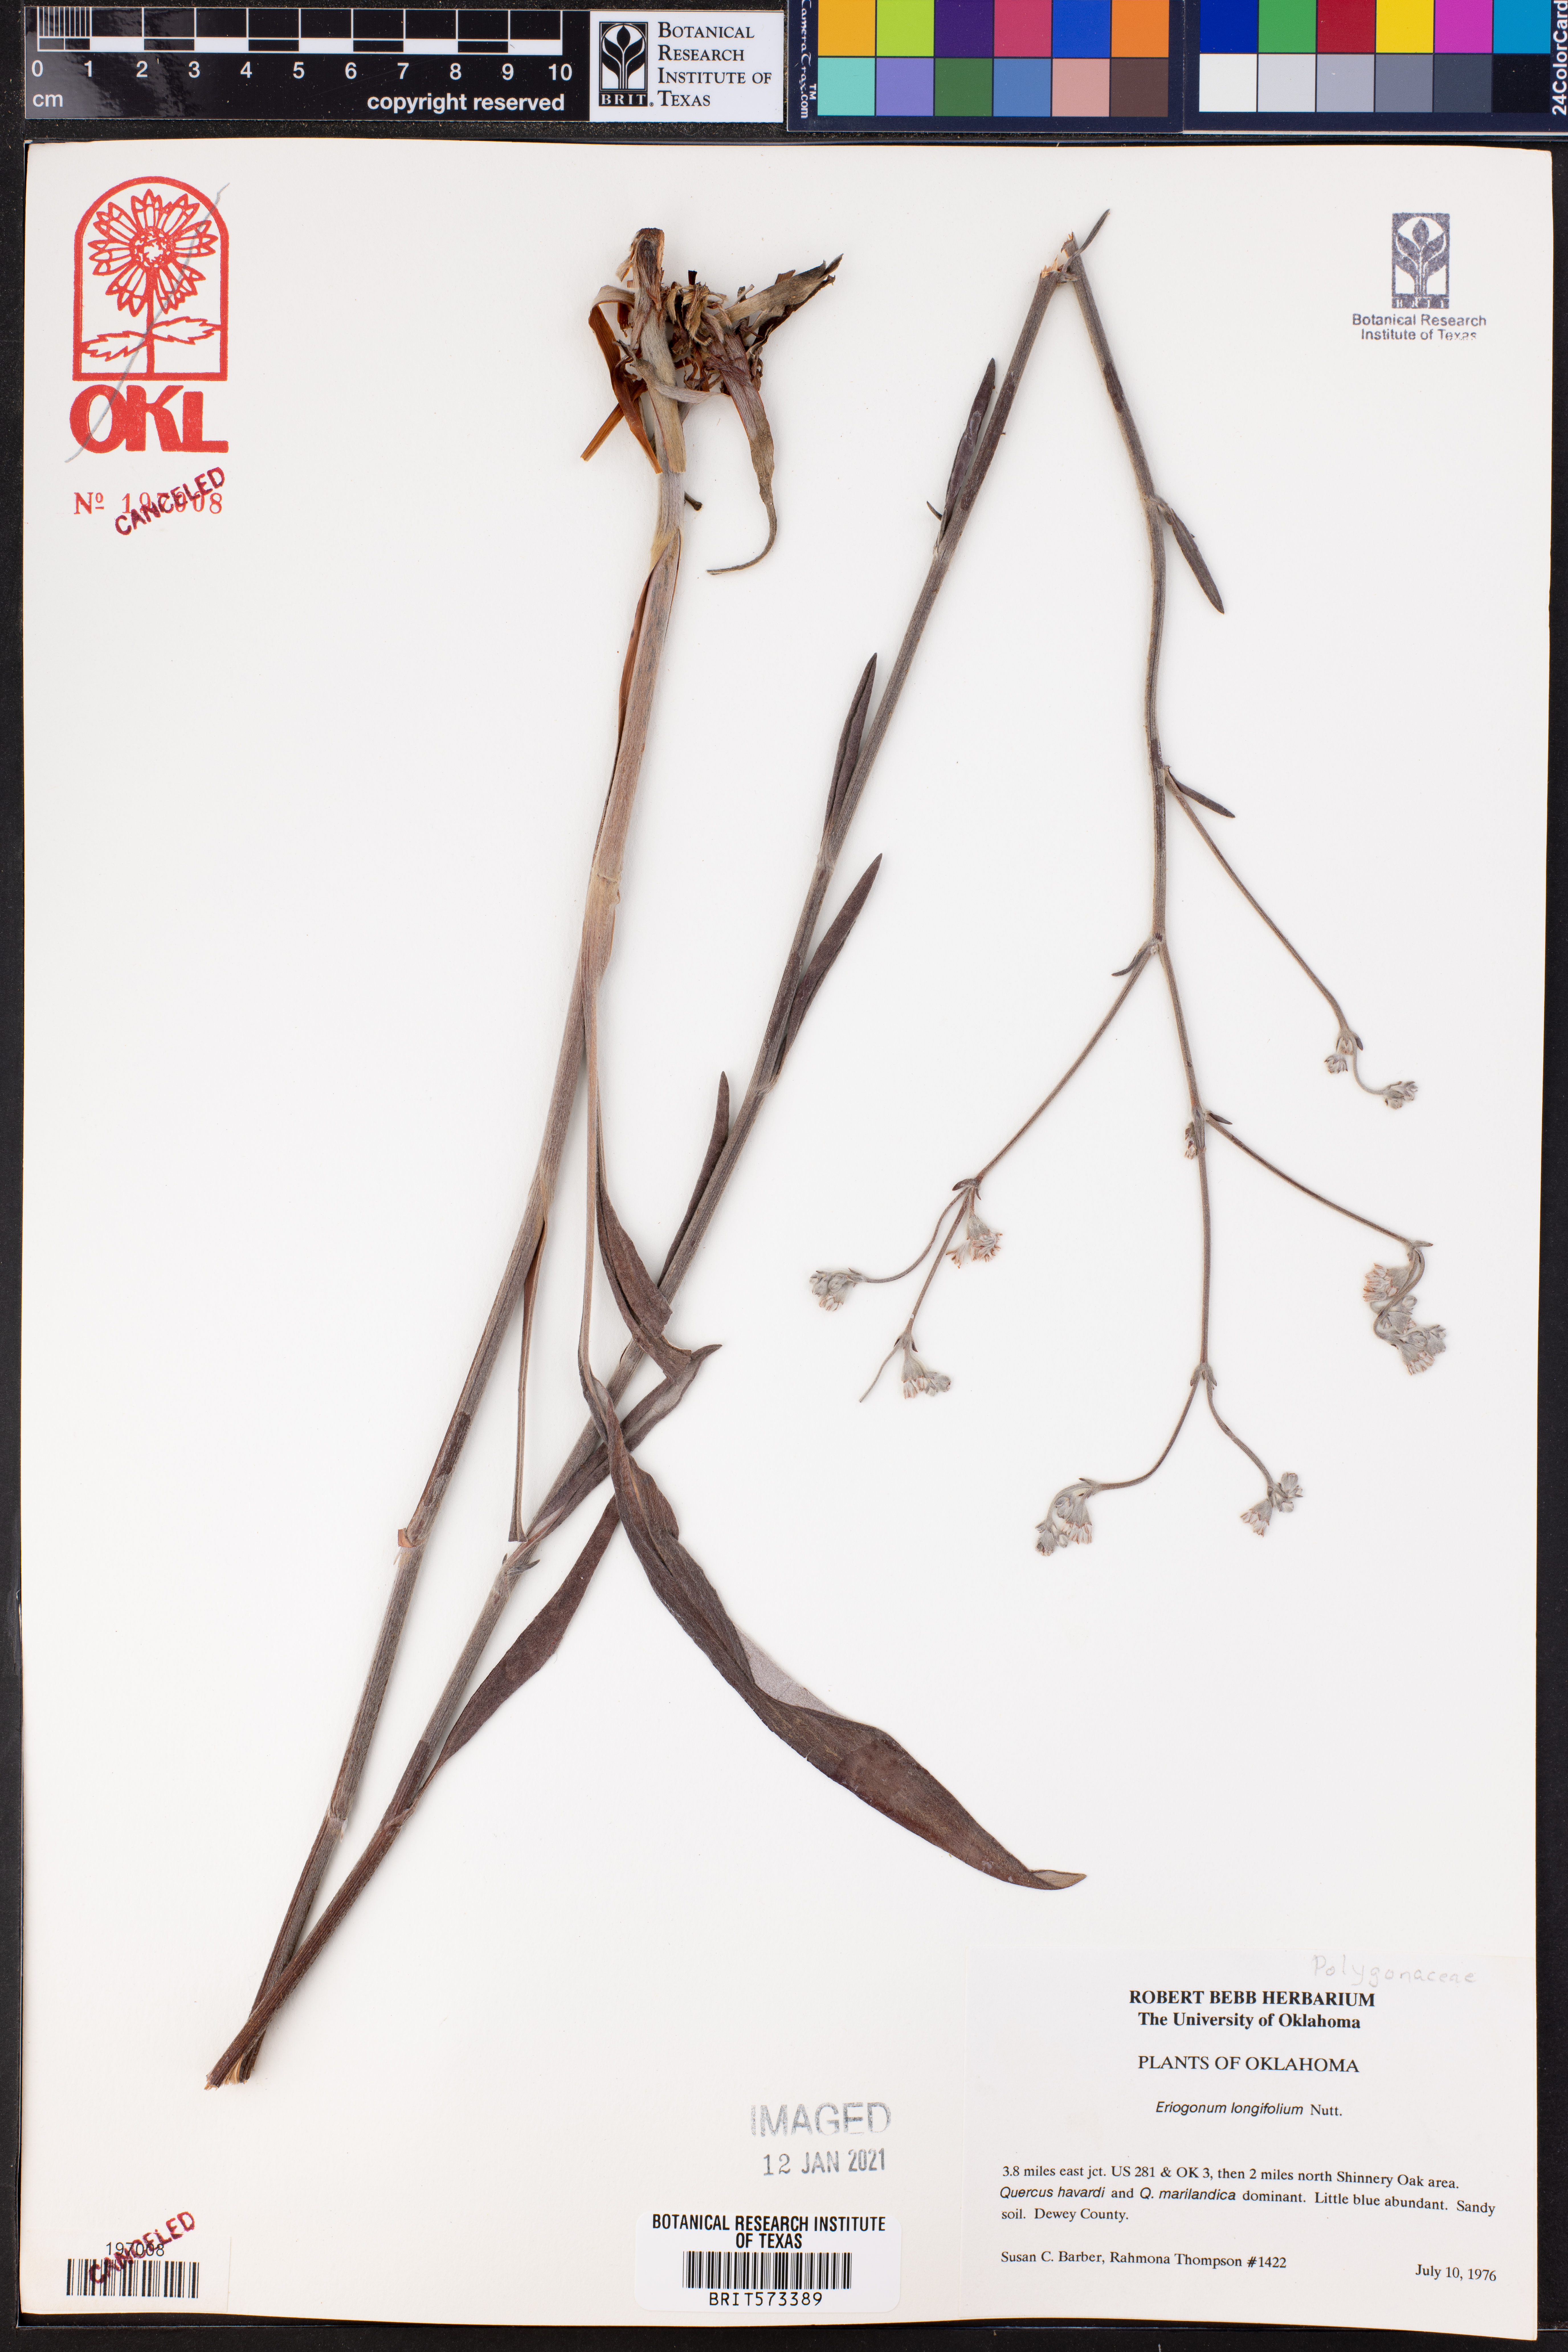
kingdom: Plantae
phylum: Tracheophyta
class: Magnoliopsida
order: Caryophyllales
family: Polygonaceae
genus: Eriogonum
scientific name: Eriogonum longifolium
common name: Longleaf wild buckwheat
